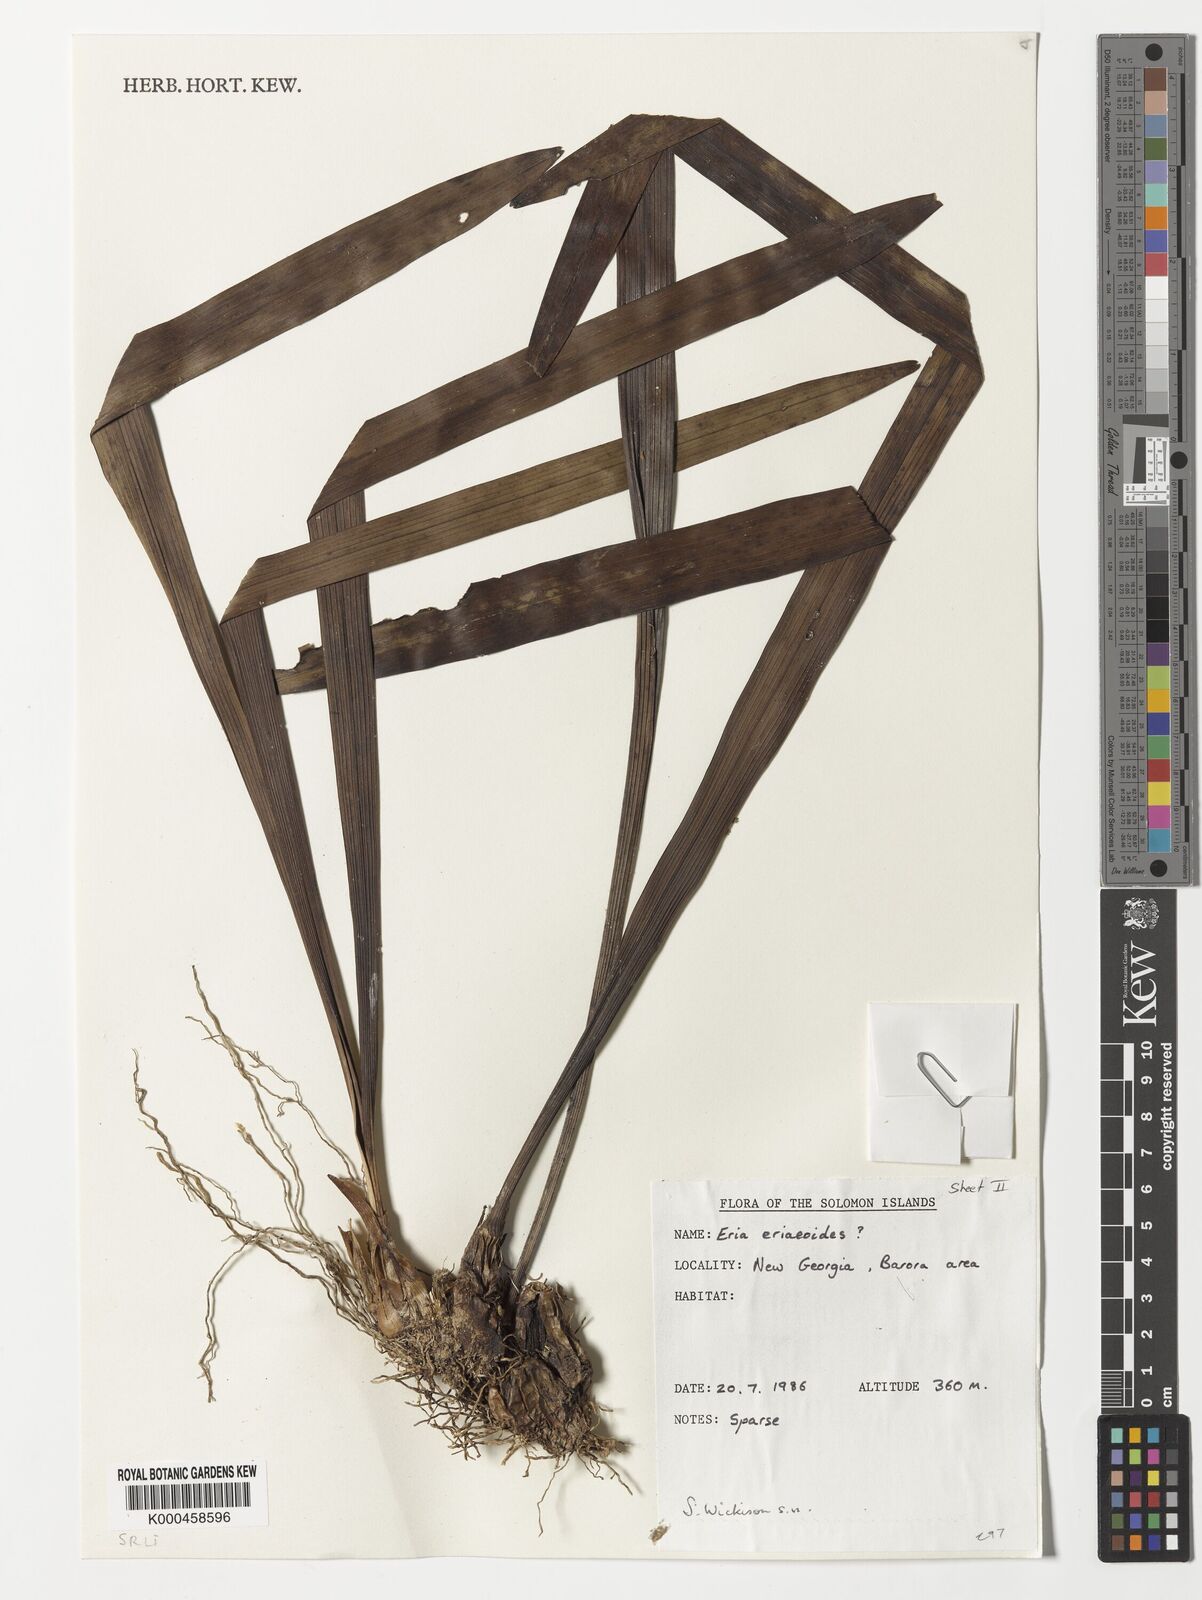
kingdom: Plantae
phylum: Tracheophyta
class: Liliopsida
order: Asparagales
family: Orchidaceae
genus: Bryobium
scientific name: Bryobium eriaeoides
